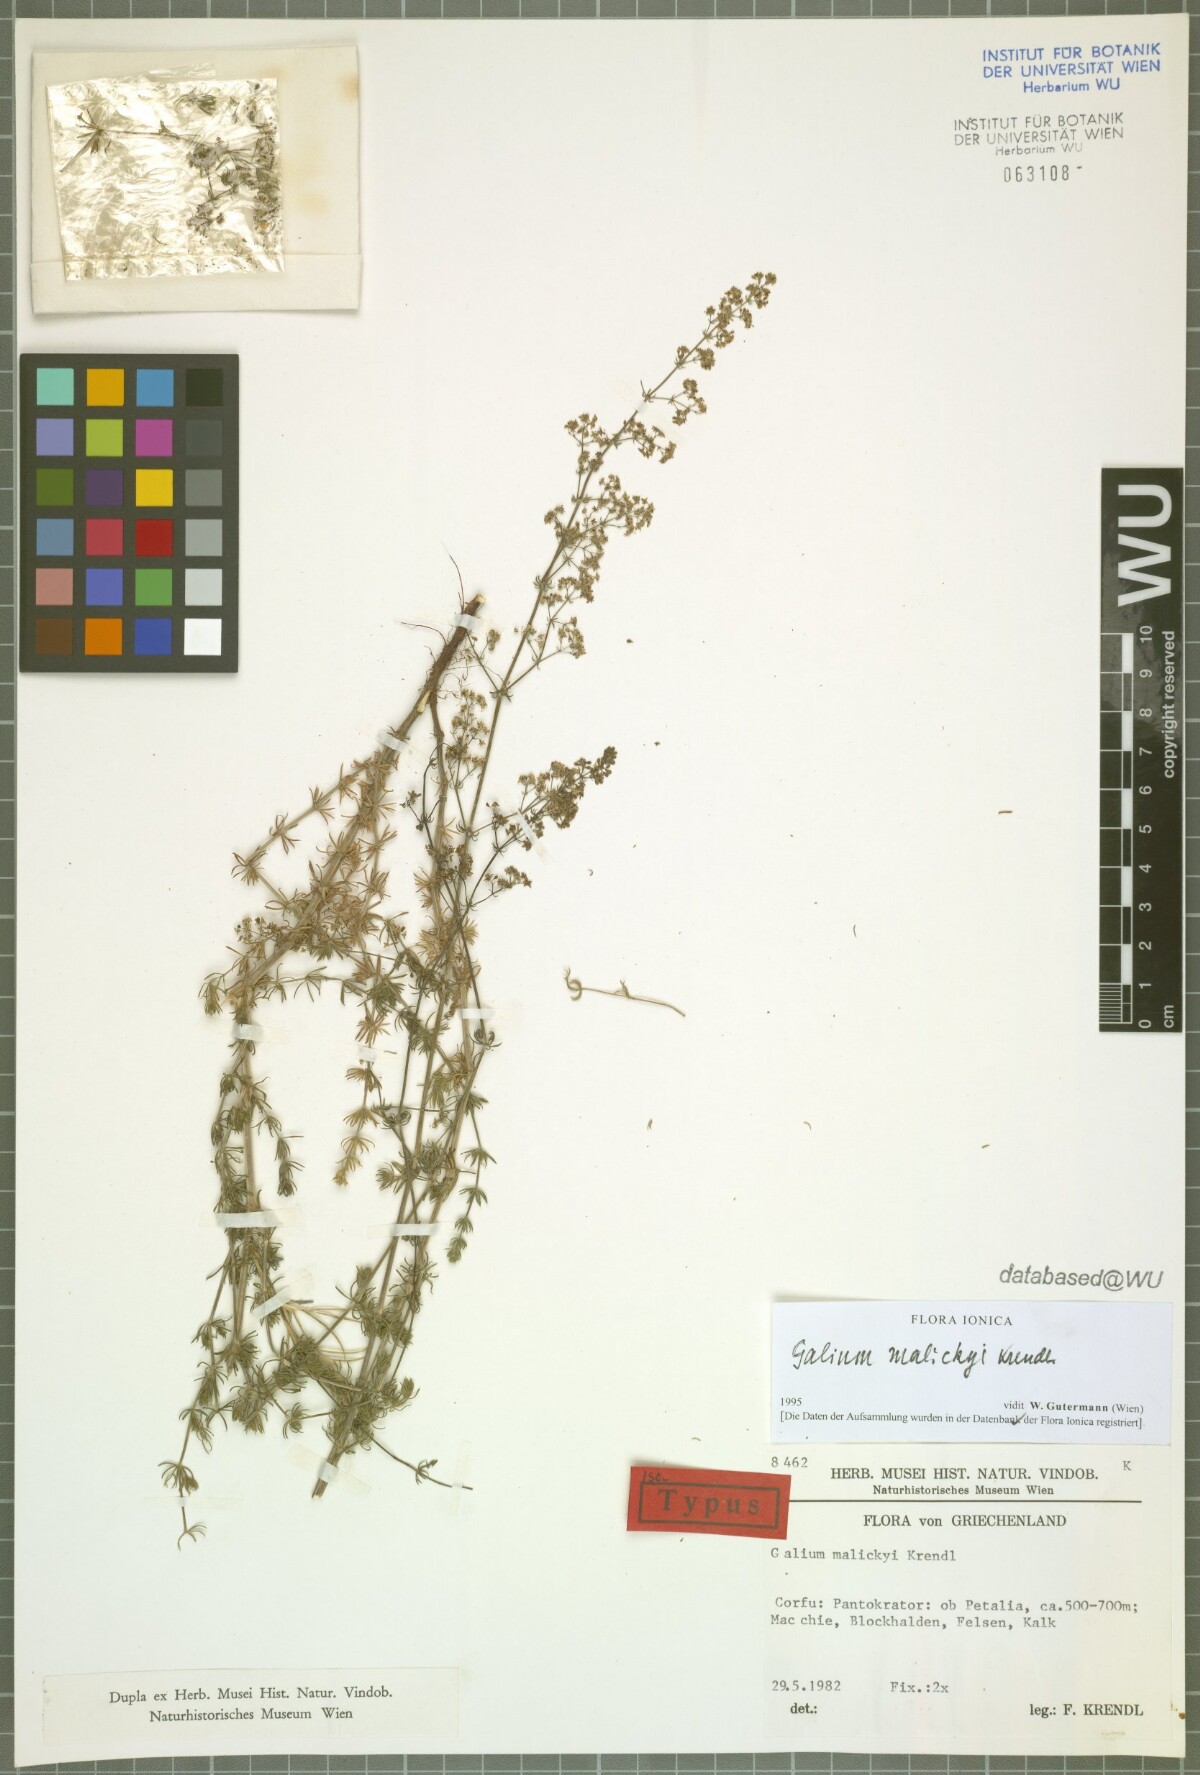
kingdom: Plantae
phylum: Tracheophyta
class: Magnoliopsida
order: Gentianales
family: Rubiaceae
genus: Galium
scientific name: Galium malickyi
